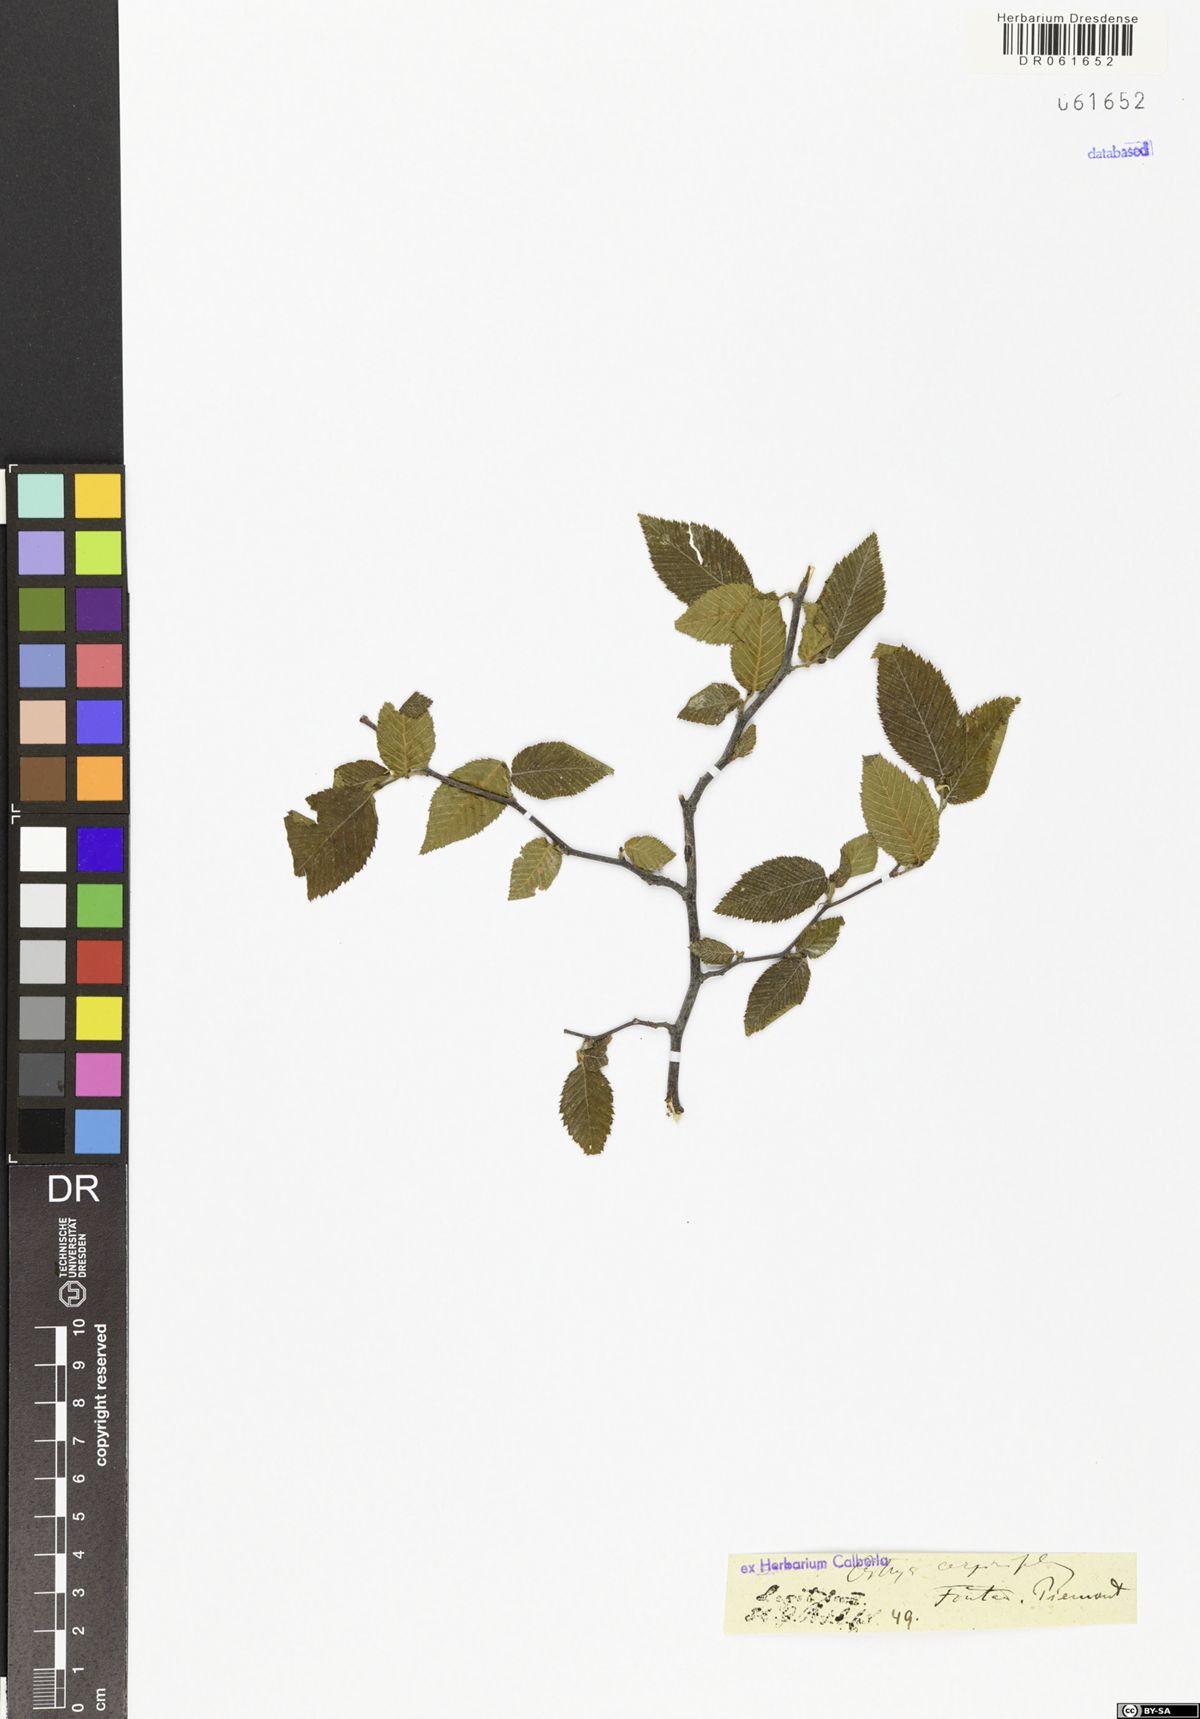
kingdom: Plantae
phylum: Tracheophyta
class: Magnoliopsida
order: Fagales
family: Betulaceae
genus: Ostrya
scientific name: Ostrya carpinifolia
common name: European hop-hornbeam
